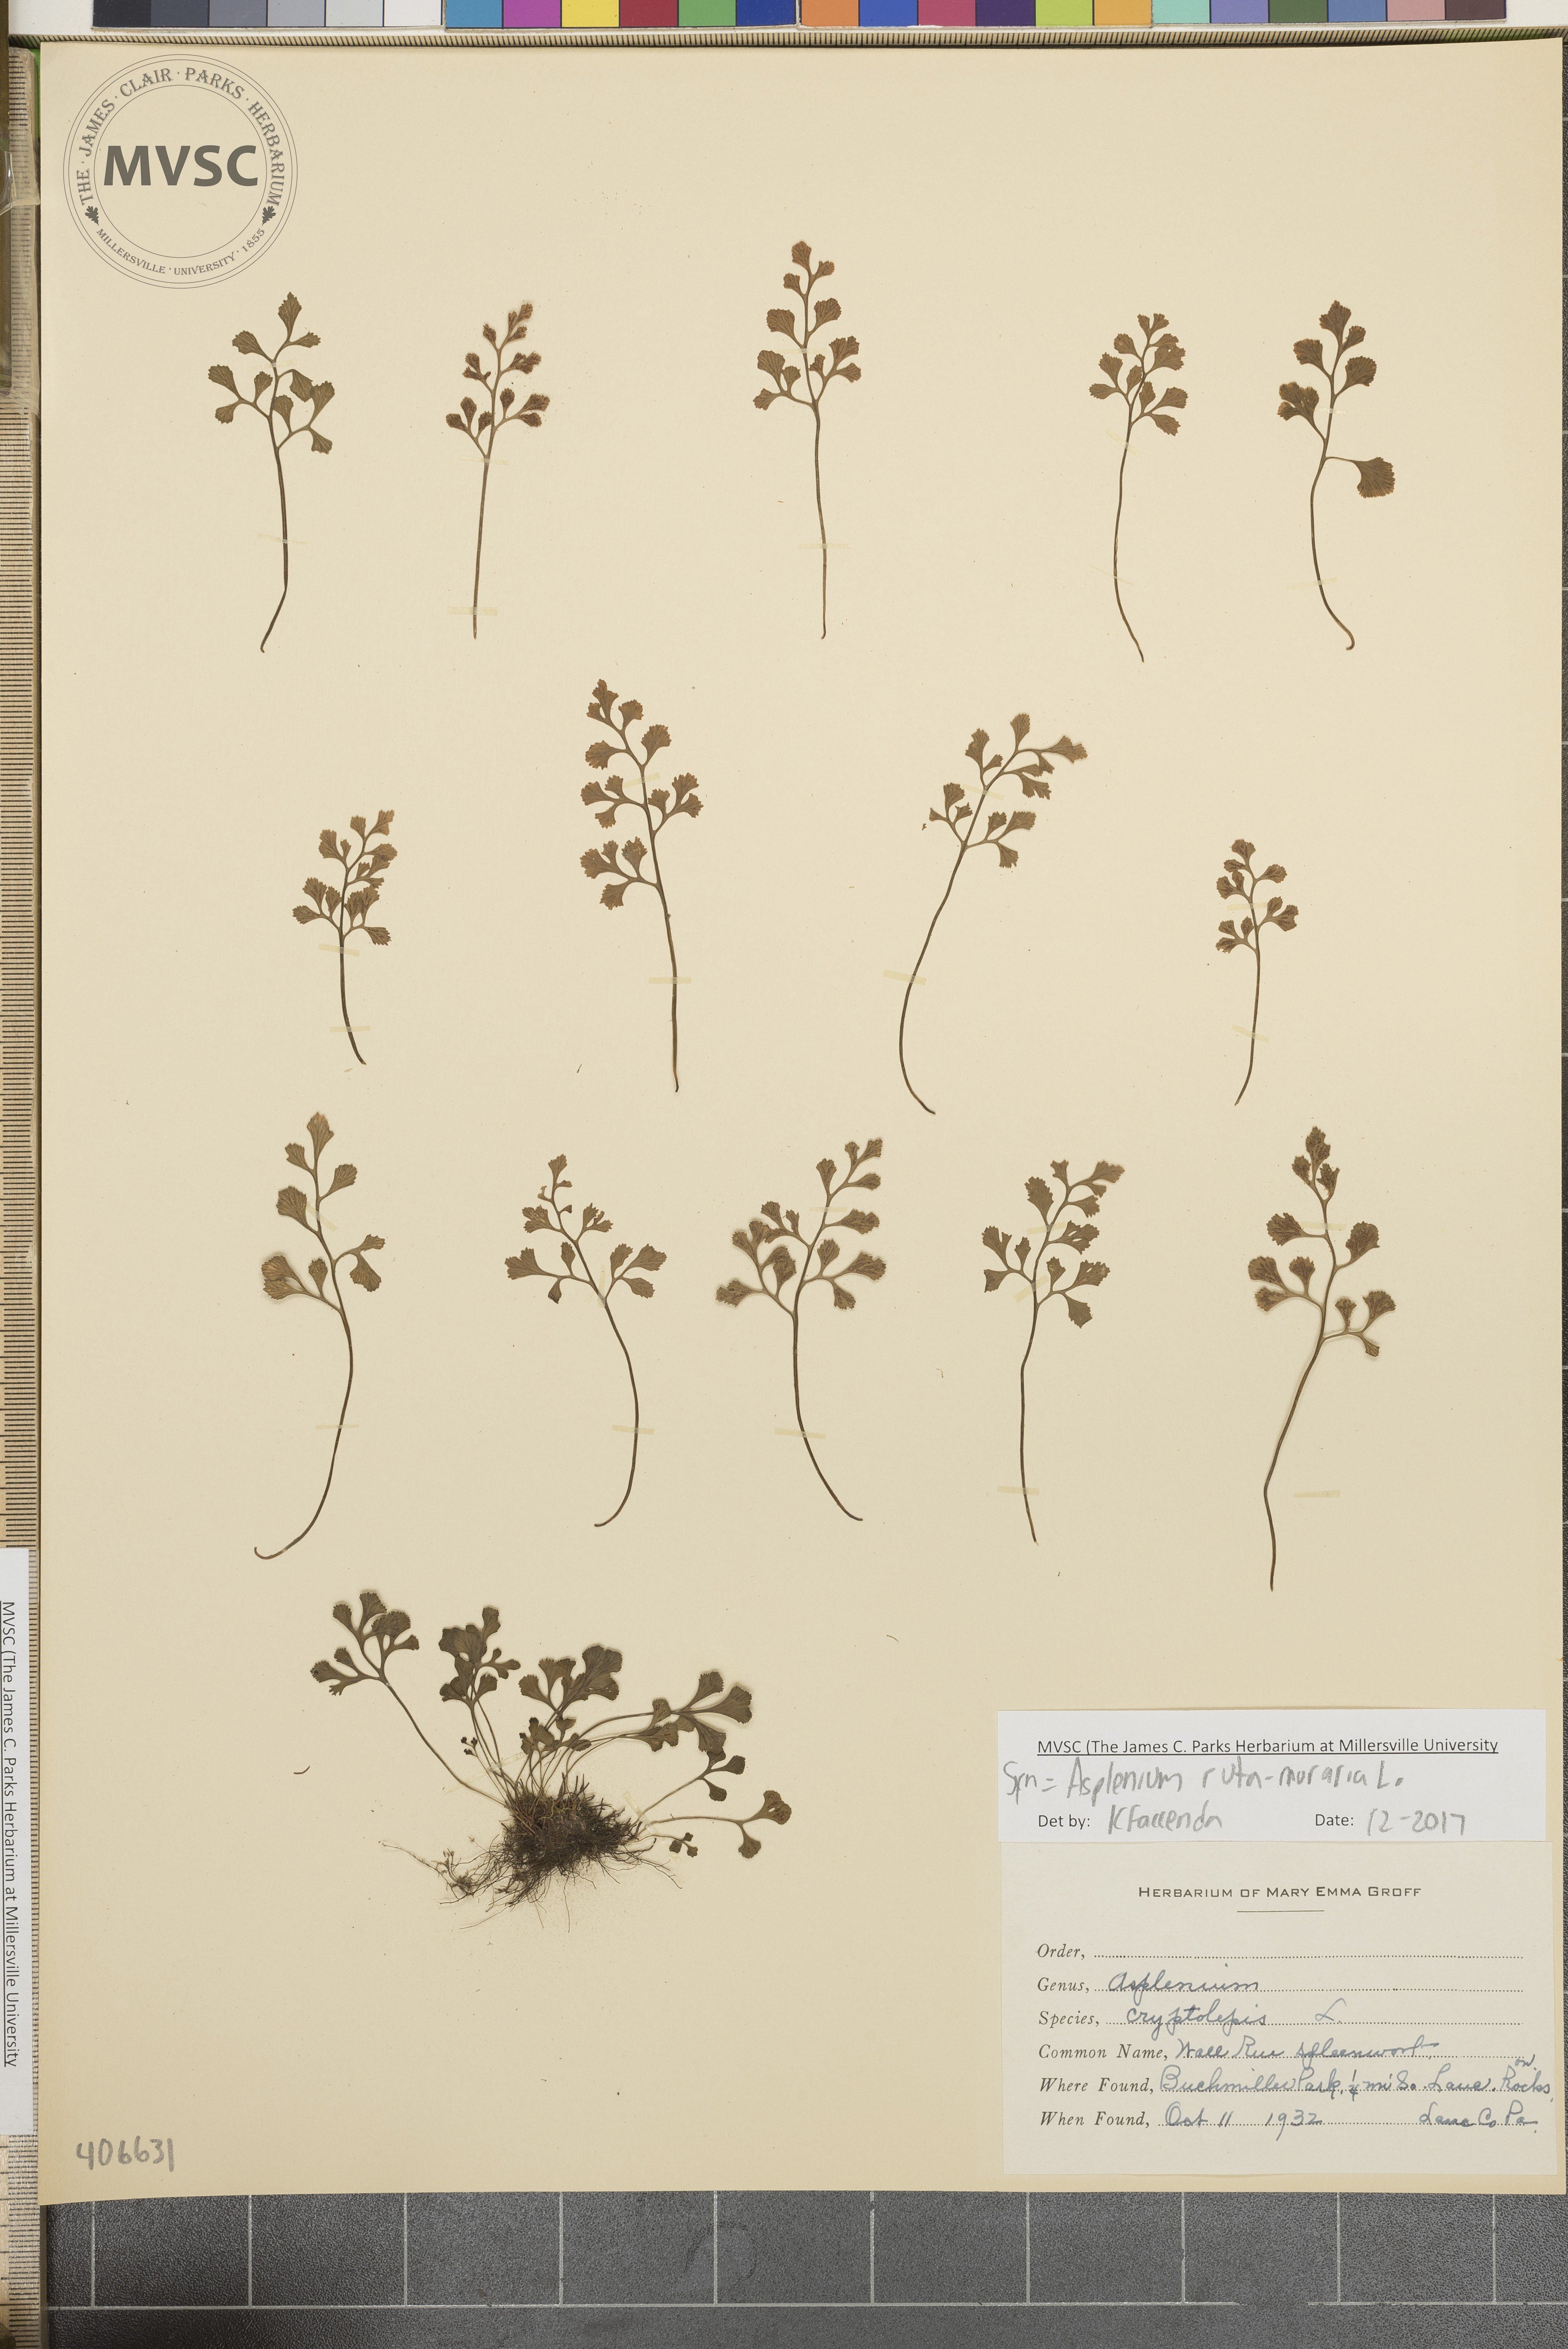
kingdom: Plantae
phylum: Tracheophyta
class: Polypodiopsida
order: Polypodiales
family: Aspleniaceae
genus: Asplenium
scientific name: Asplenium ruta-muraria
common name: Wall-rue
